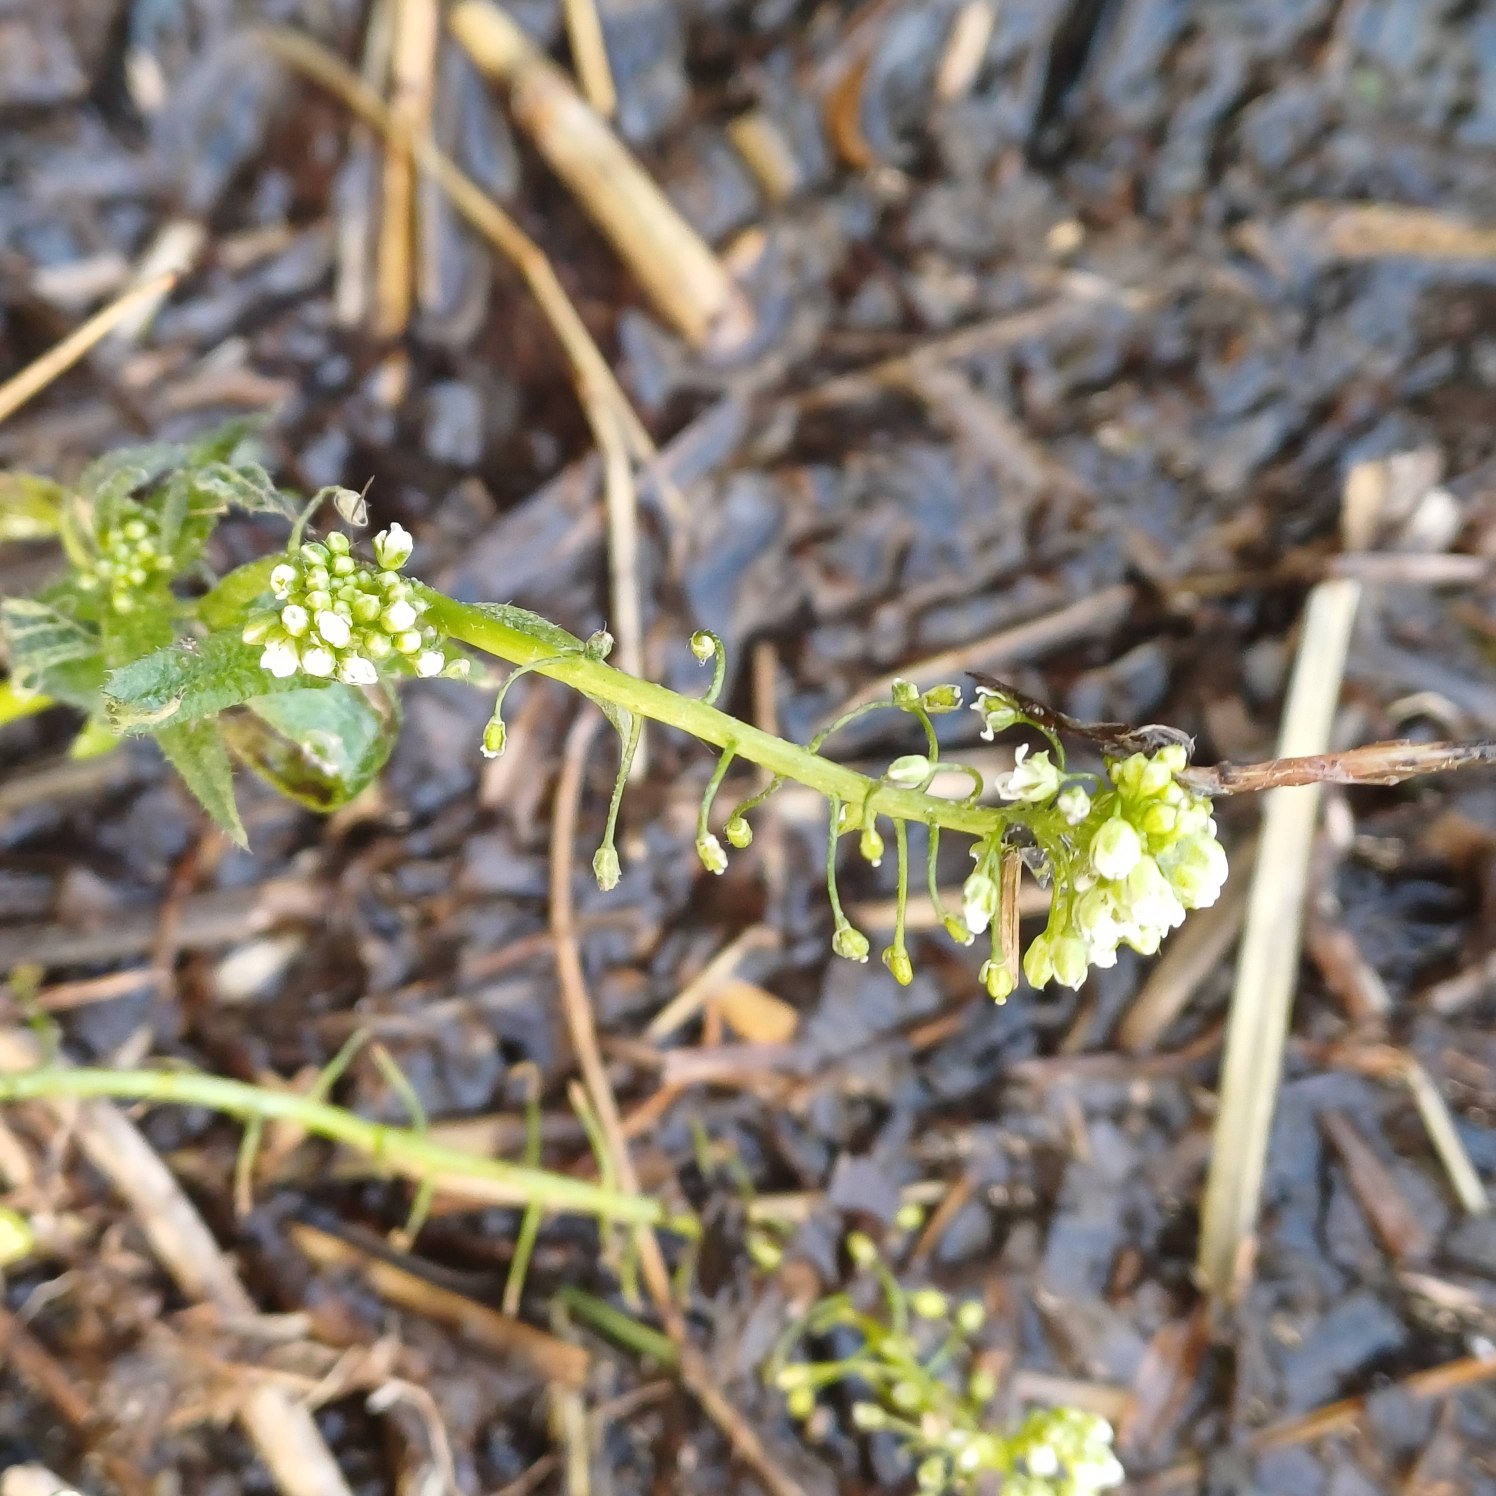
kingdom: Plantae
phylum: Tracheophyta
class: Magnoliopsida
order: Brassicales
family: Brassicaceae
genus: Capsella
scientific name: Capsella bursa-pastoris
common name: Hyrdetaske
